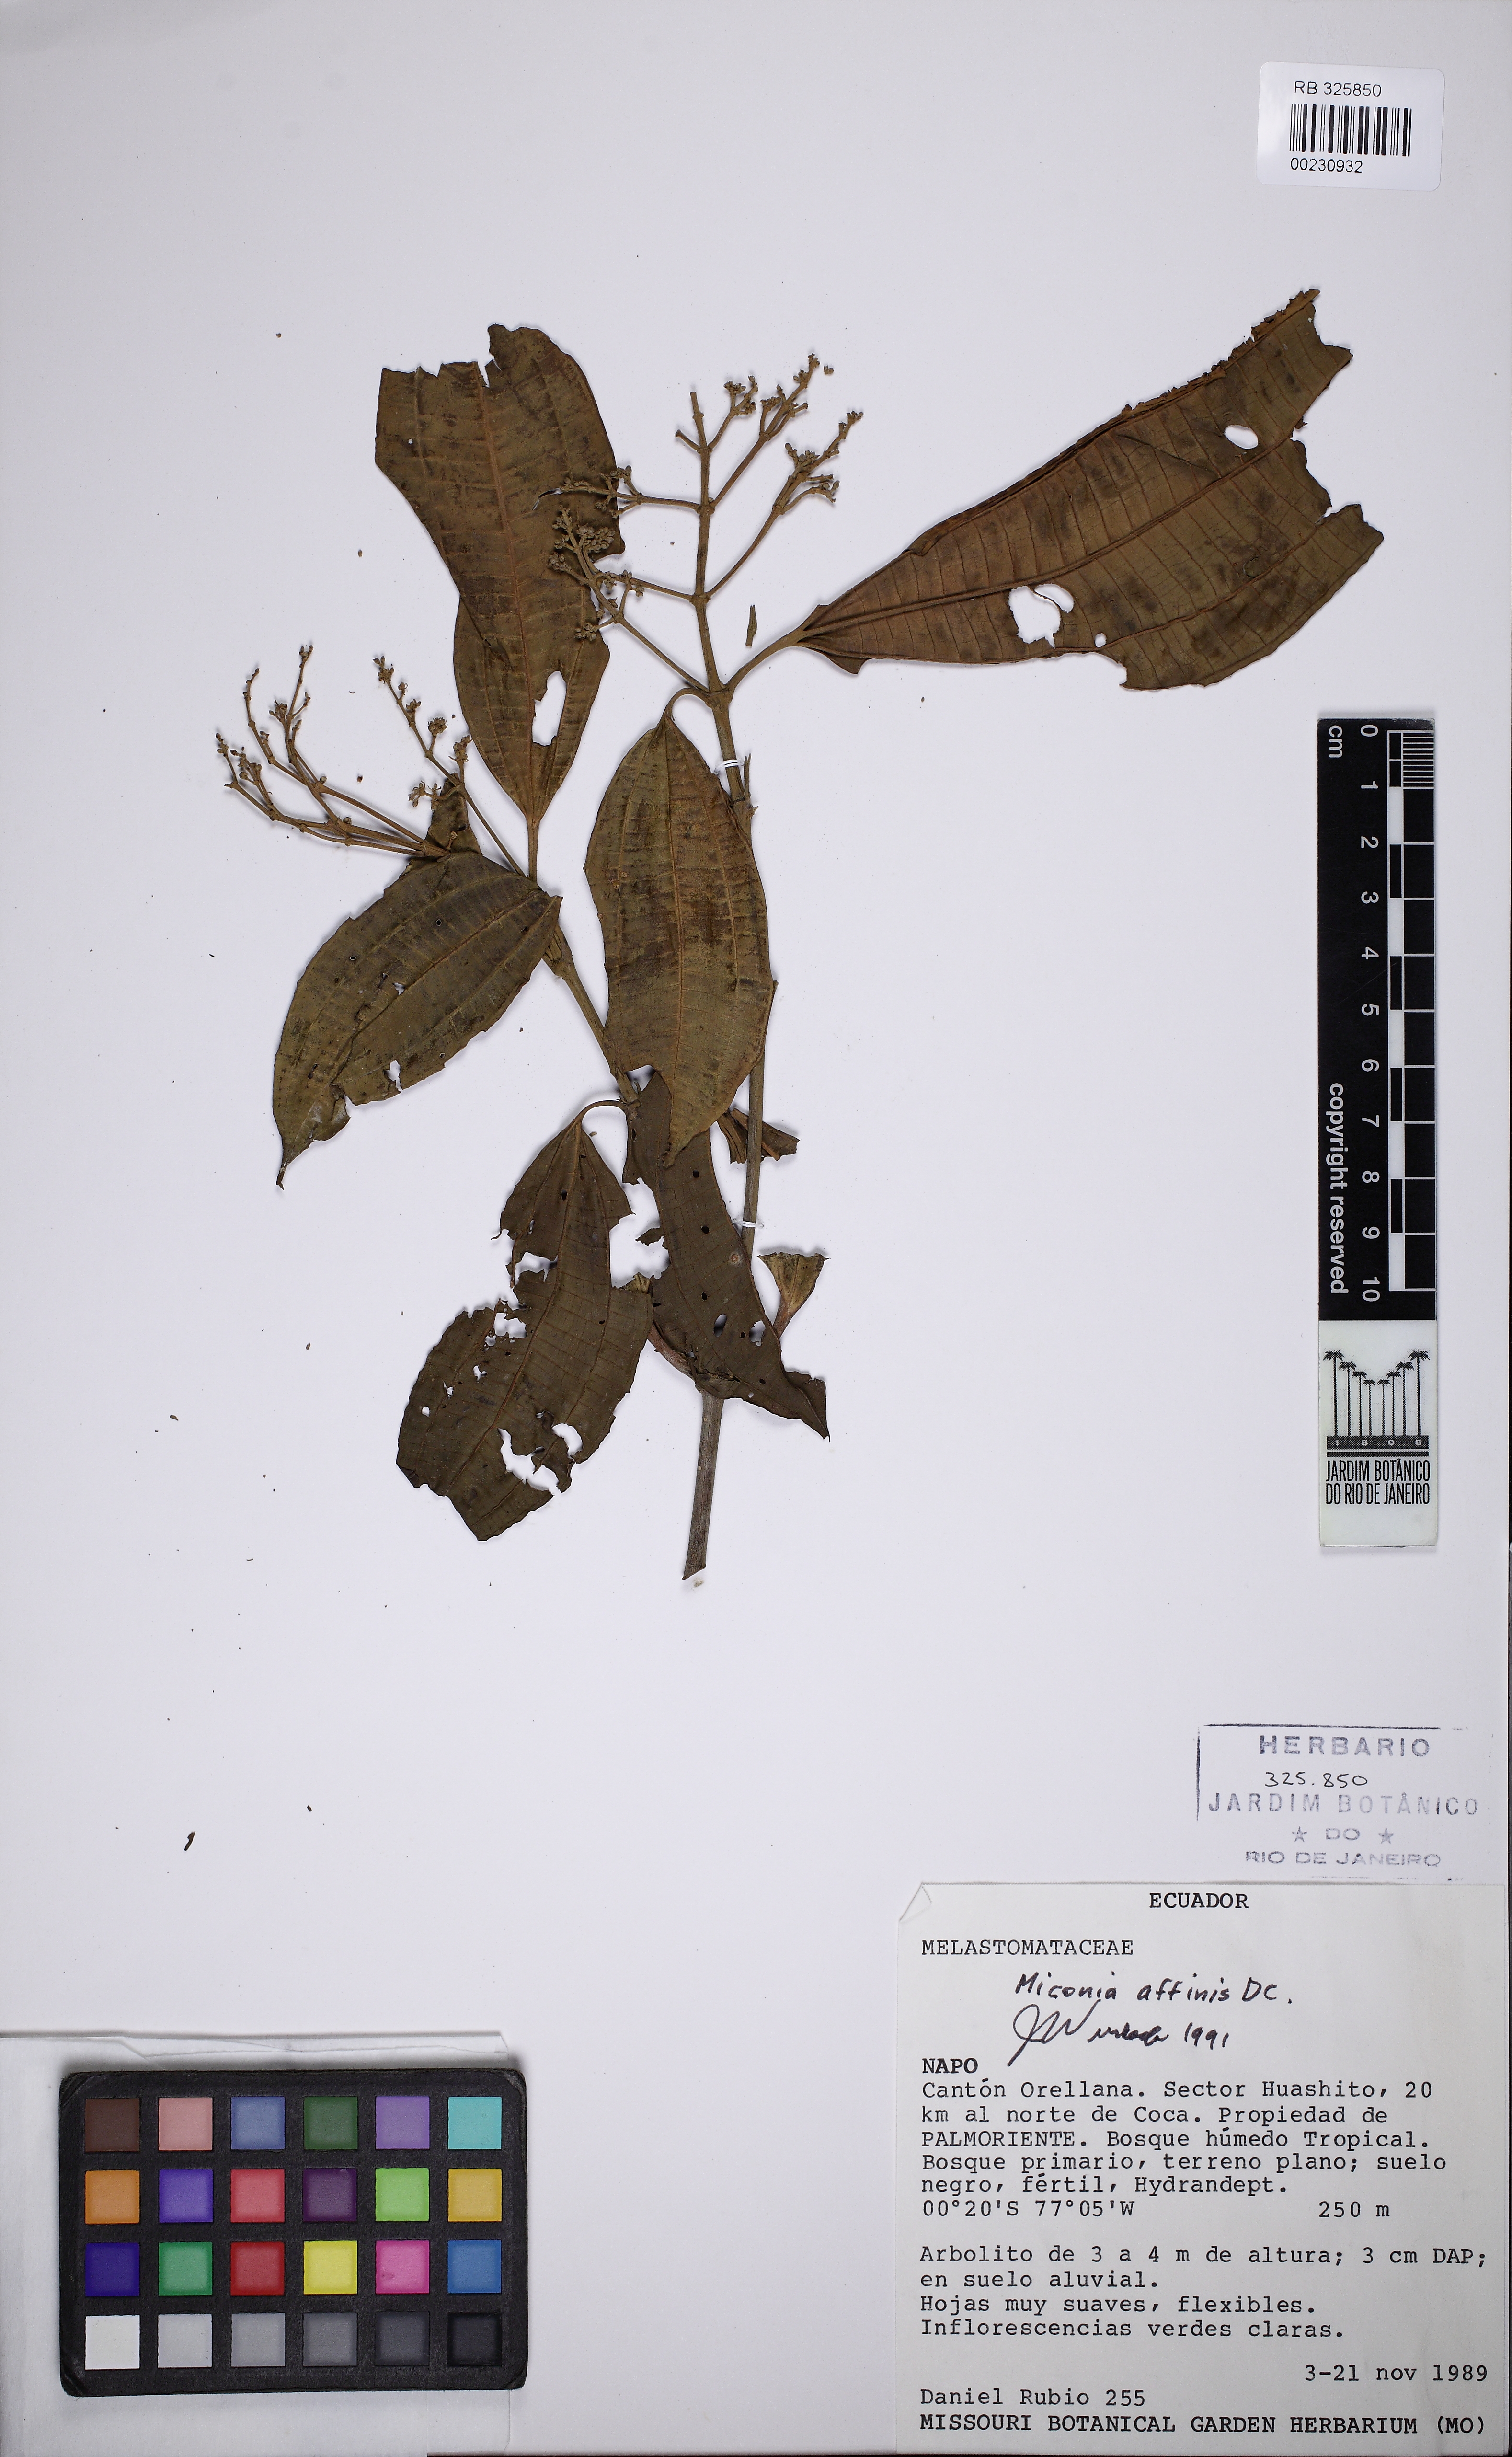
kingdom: Plantae
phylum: Tracheophyta
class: Magnoliopsida
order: Myrtales
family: Melastomataceae
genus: Miconia
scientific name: Miconia affinis
